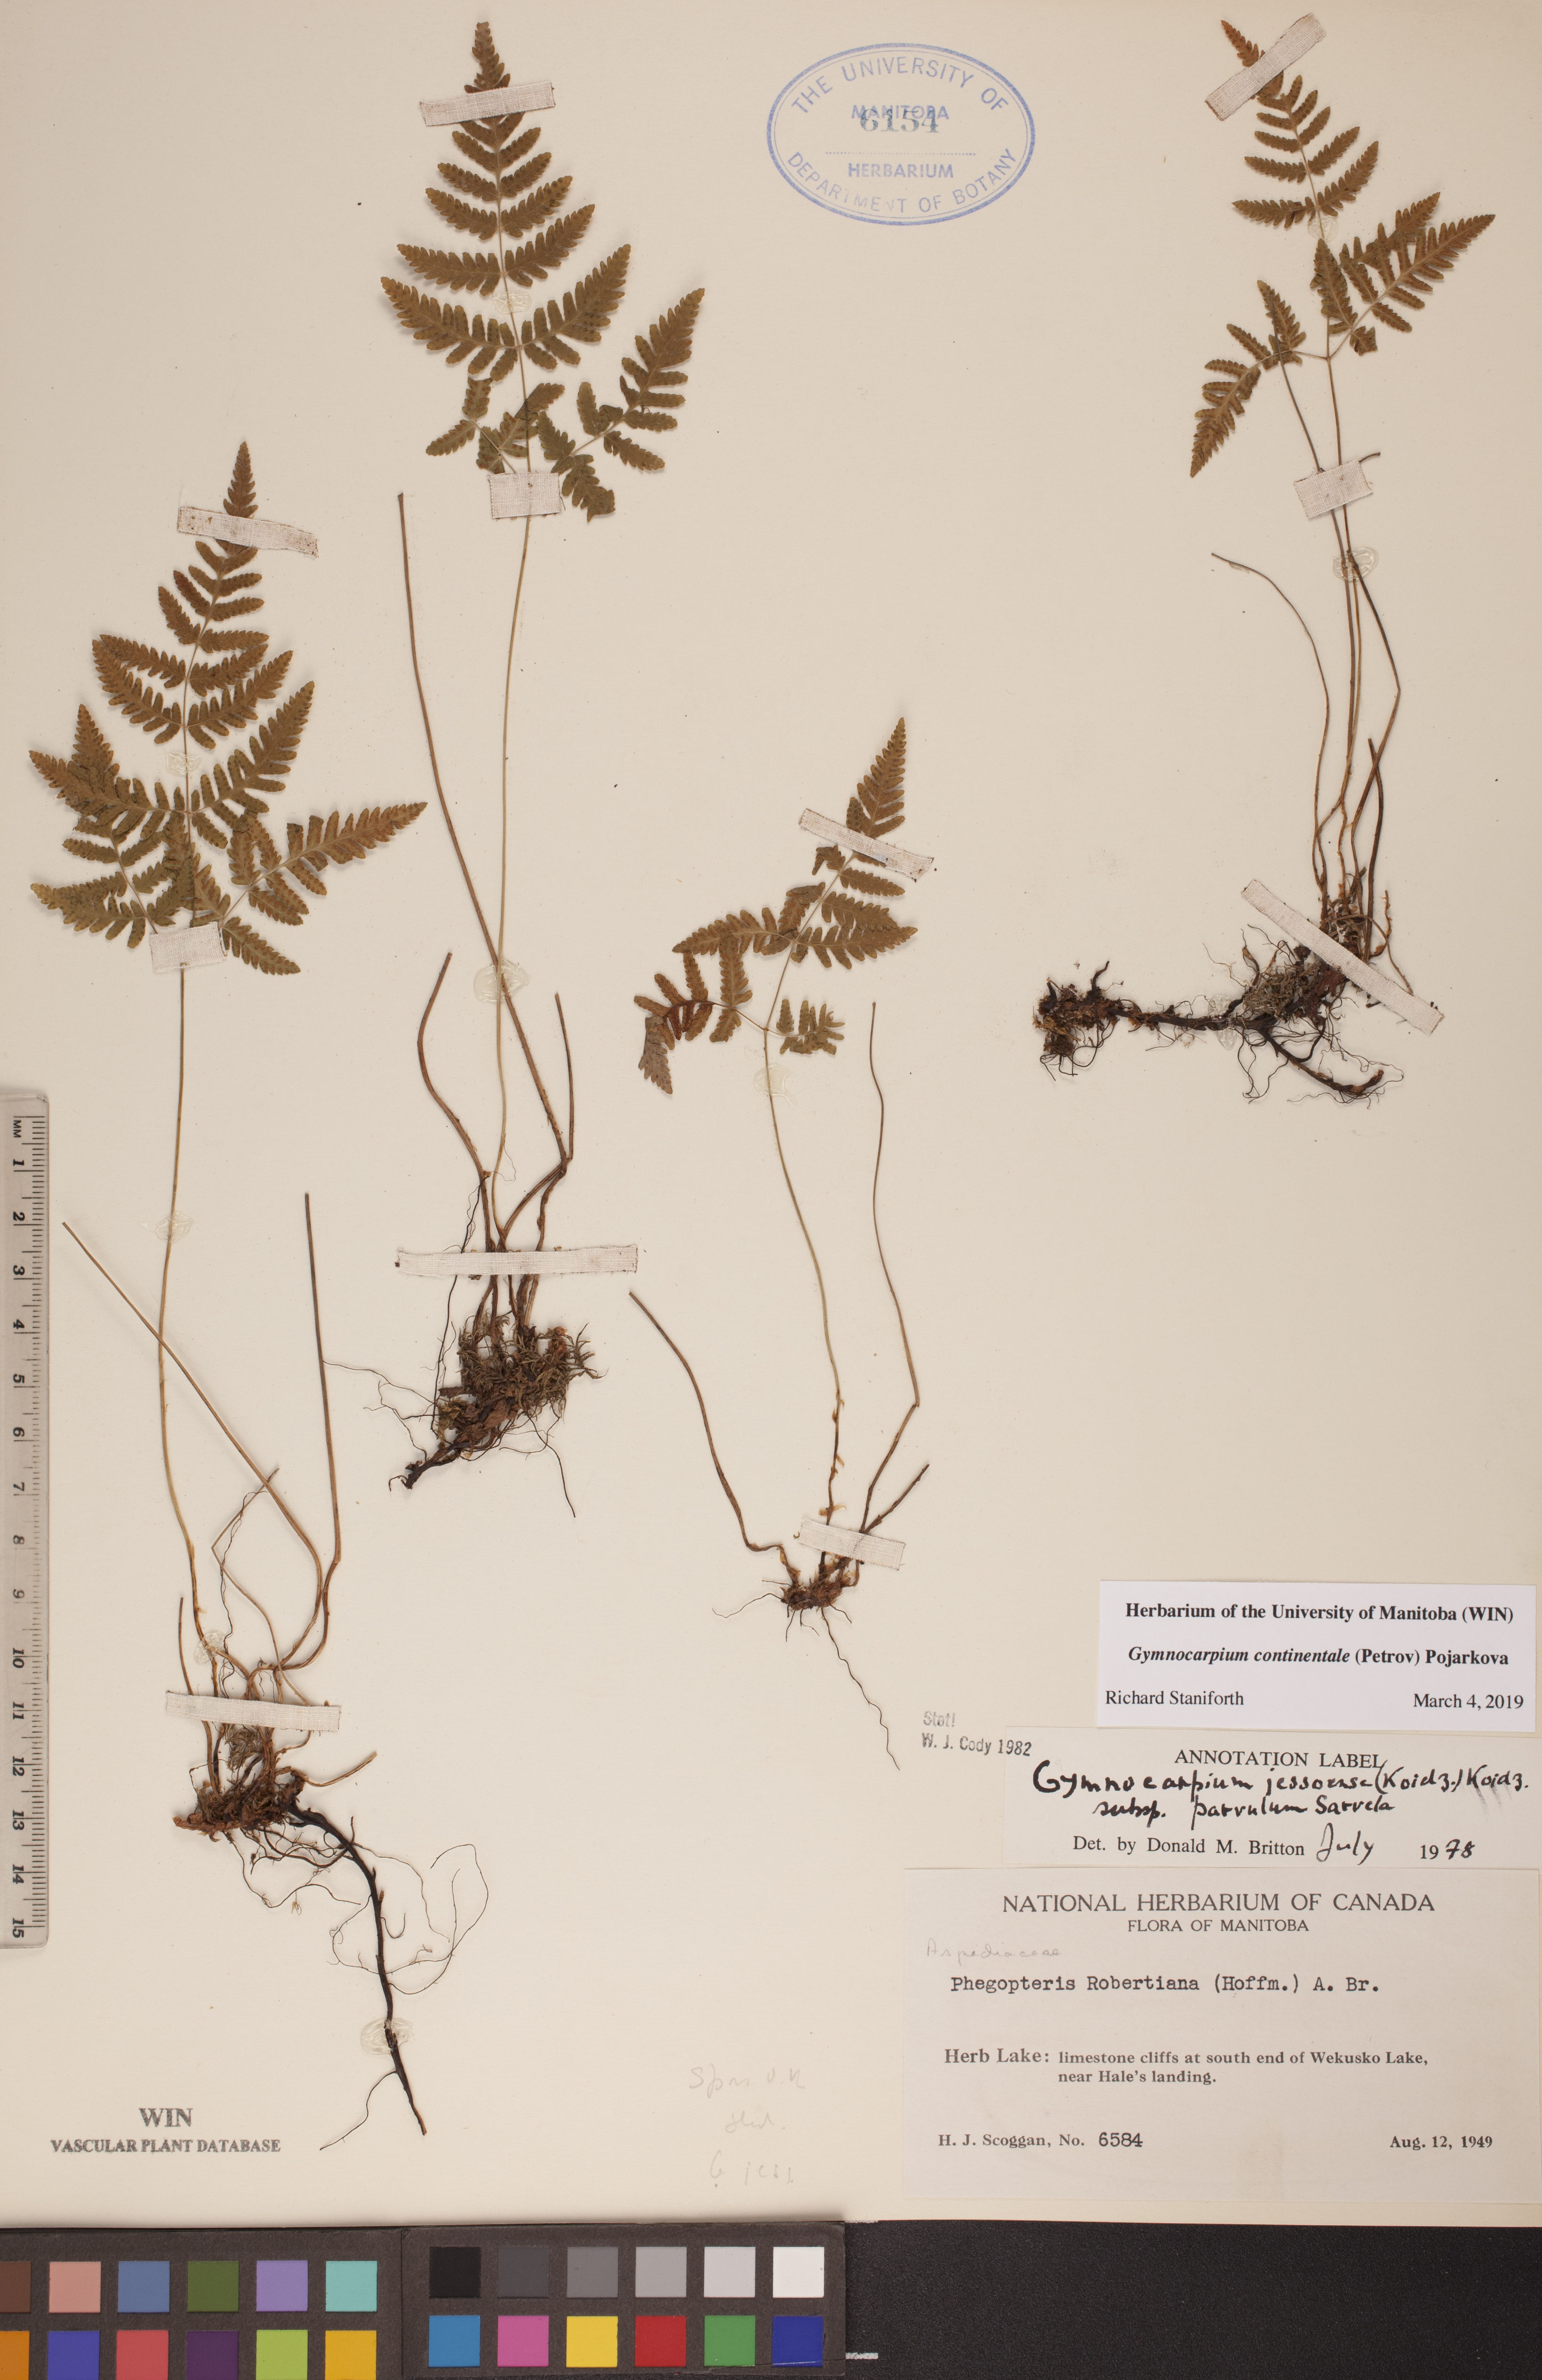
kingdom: Plantae
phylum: Tracheophyta
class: Polypodiopsida
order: Polypodiales
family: Cystopteridaceae
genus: Gymnocarpium
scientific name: Gymnocarpium continentale
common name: Asian oak fern
